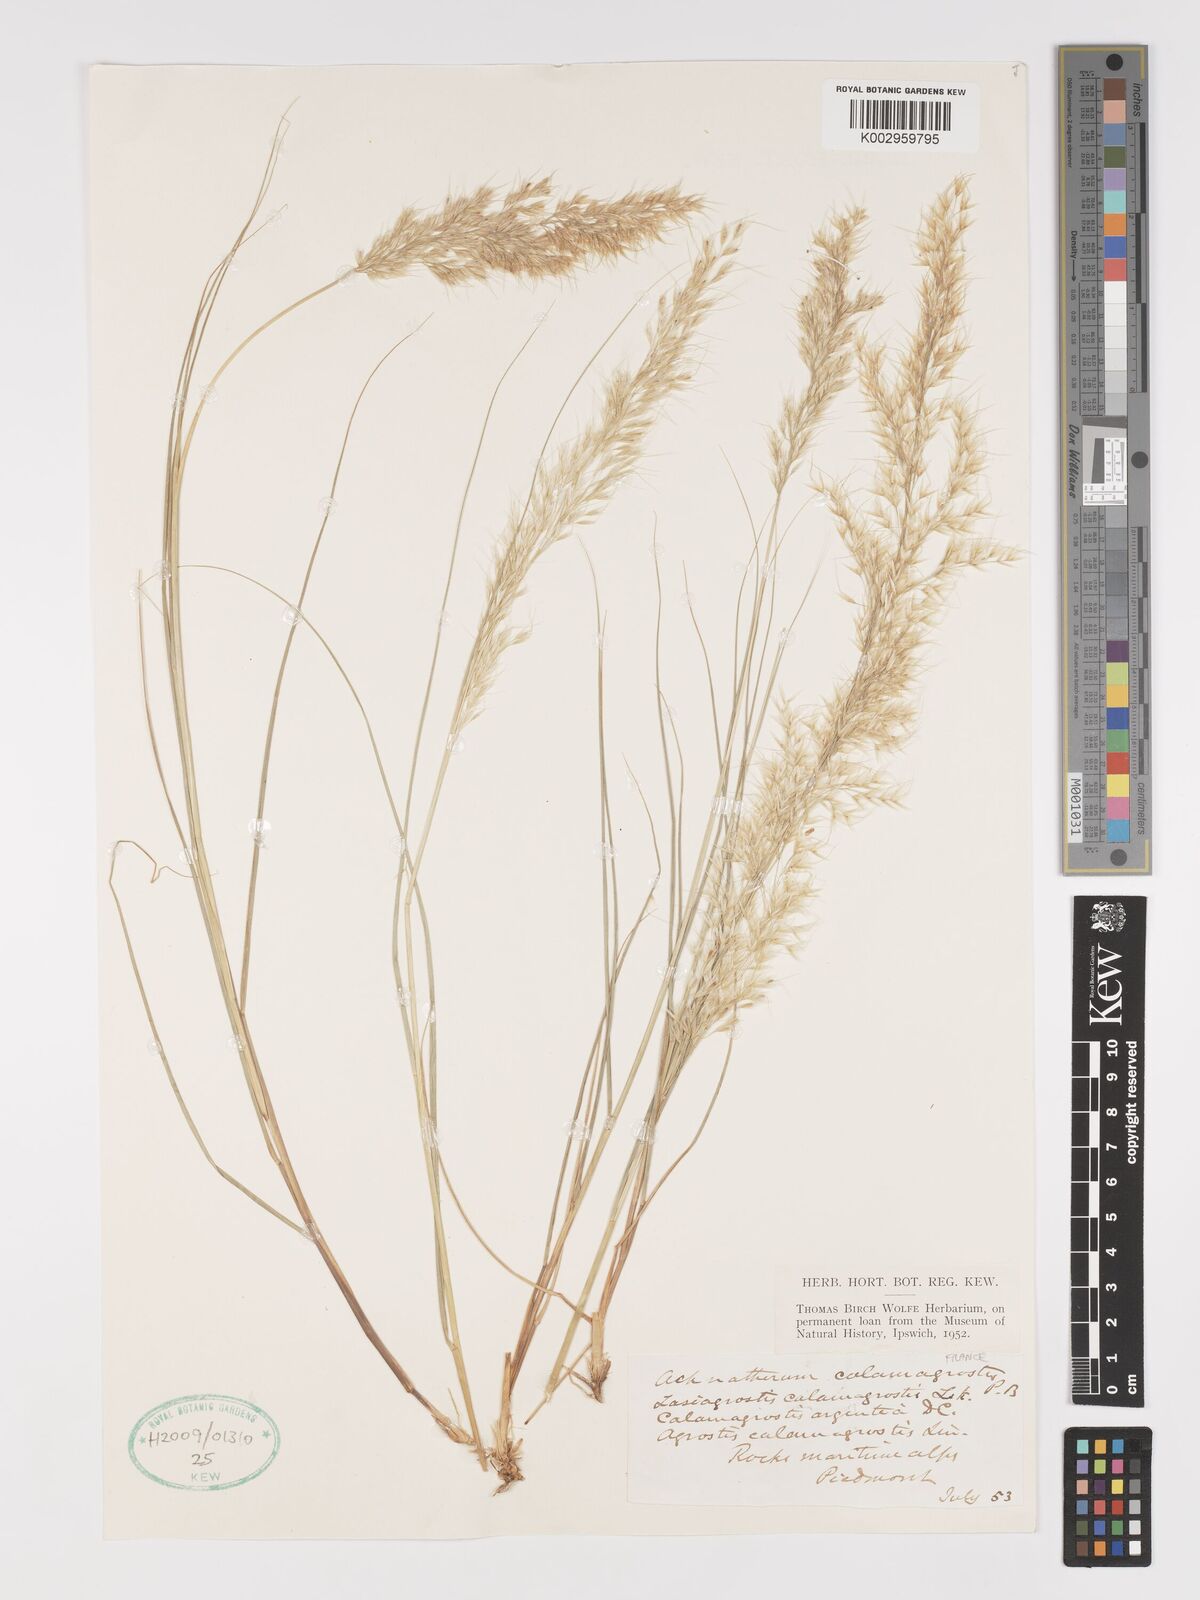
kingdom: Plantae
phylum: Tracheophyta
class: Liliopsida
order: Poales
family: Poaceae
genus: Achnatherum
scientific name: Achnatherum calamagrostis
